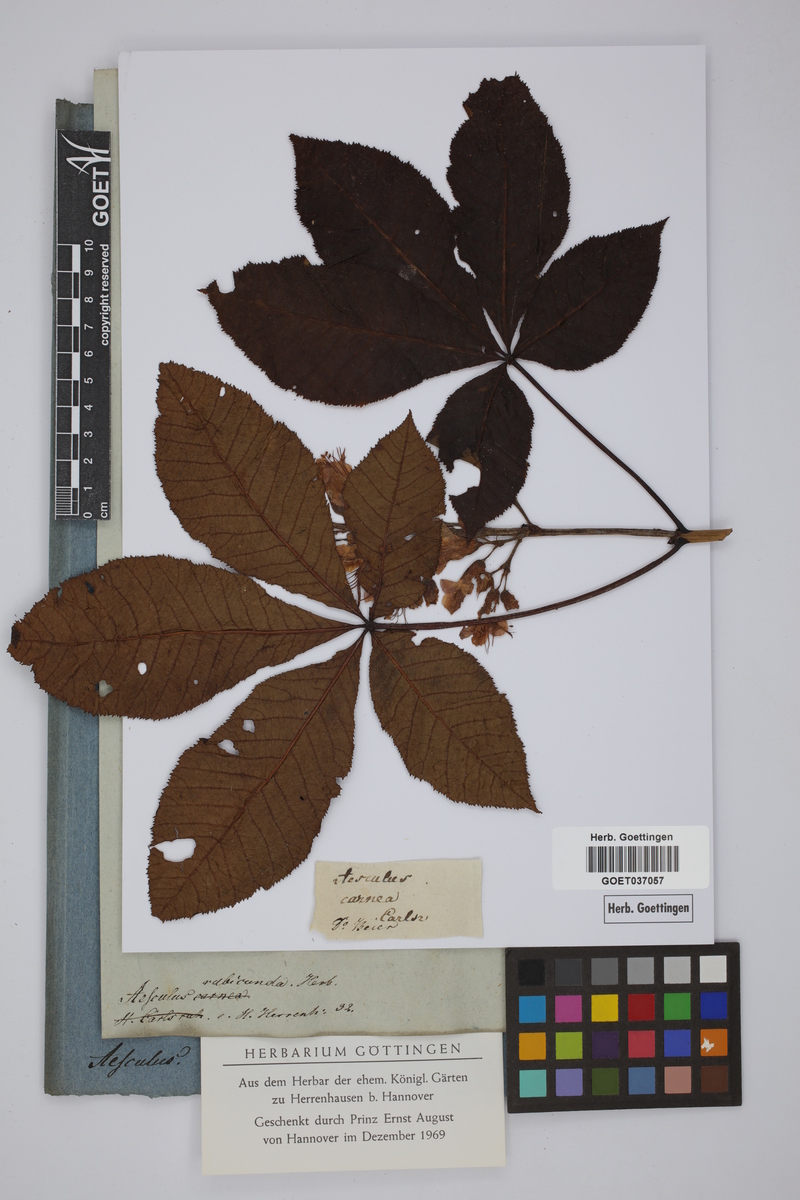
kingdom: Plantae
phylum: Tracheophyta
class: Magnoliopsida
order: Sapindales
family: Sapindaceae
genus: Aesculus
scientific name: Aesculus carnea
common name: Red horse-chestnut
